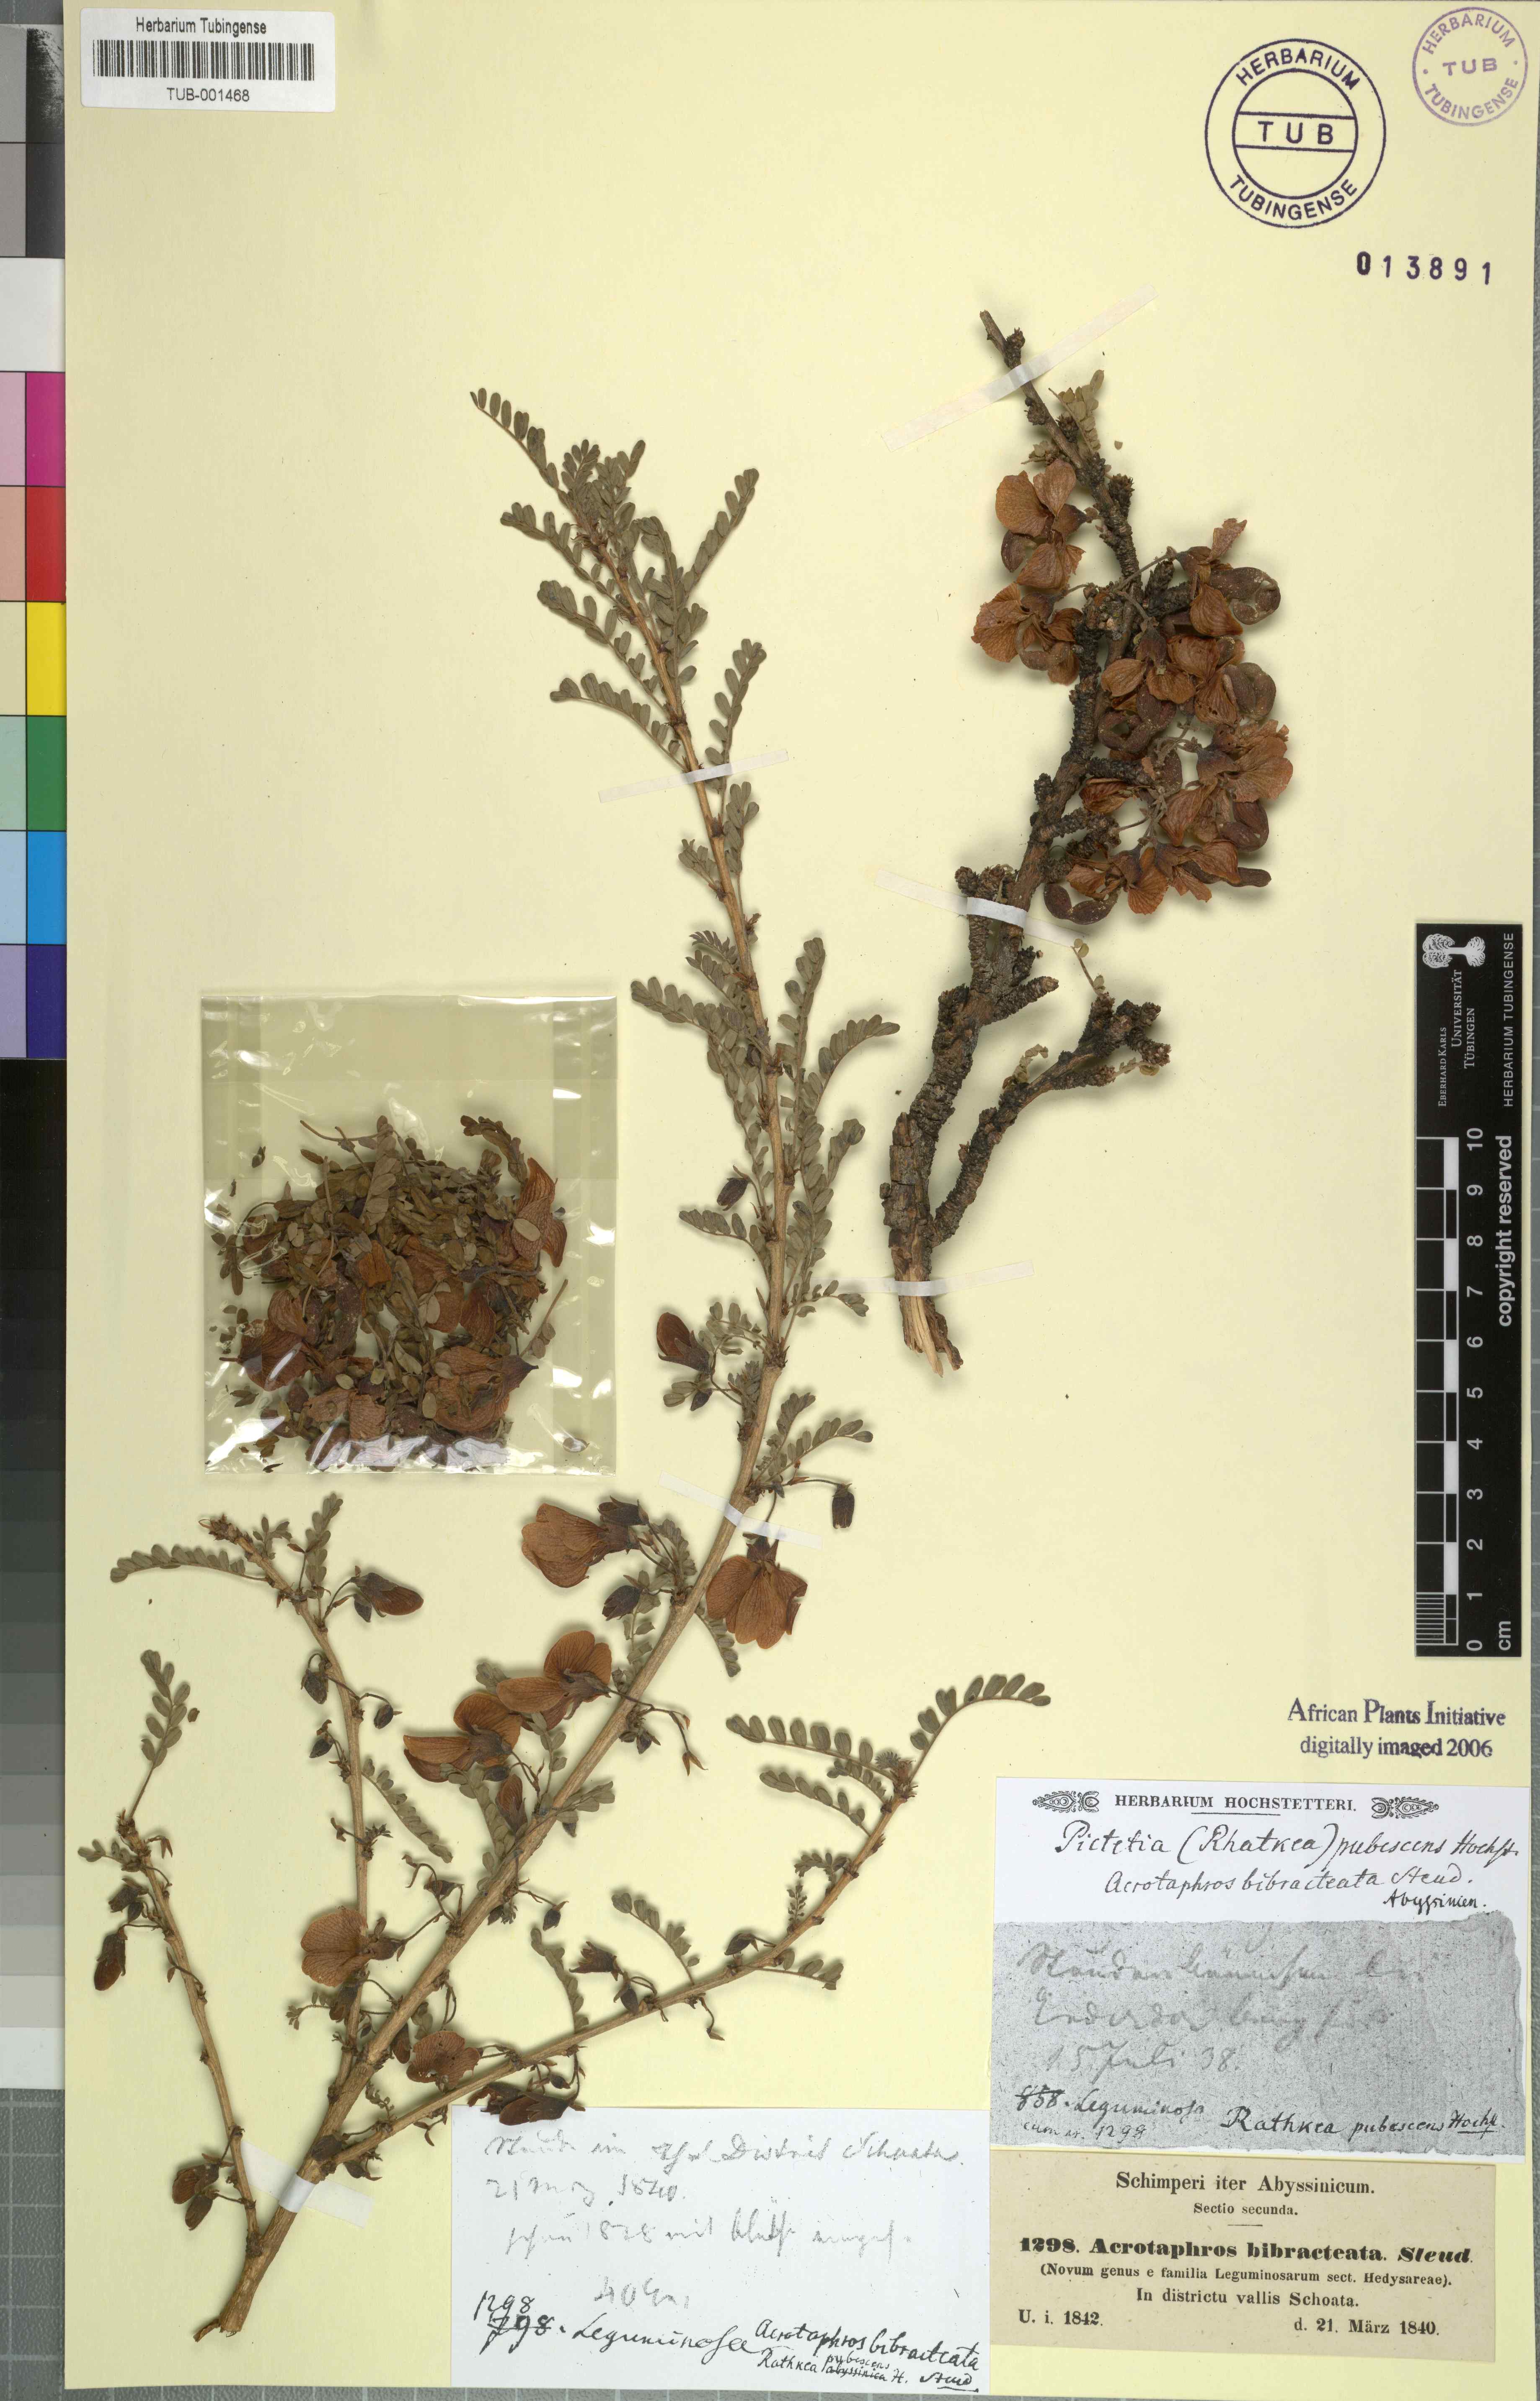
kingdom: Plantae
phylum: Tracheophyta
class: Magnoliopsida
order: Fabales
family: Fabaceae
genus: Ormocarpum
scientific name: Ormocarpum
